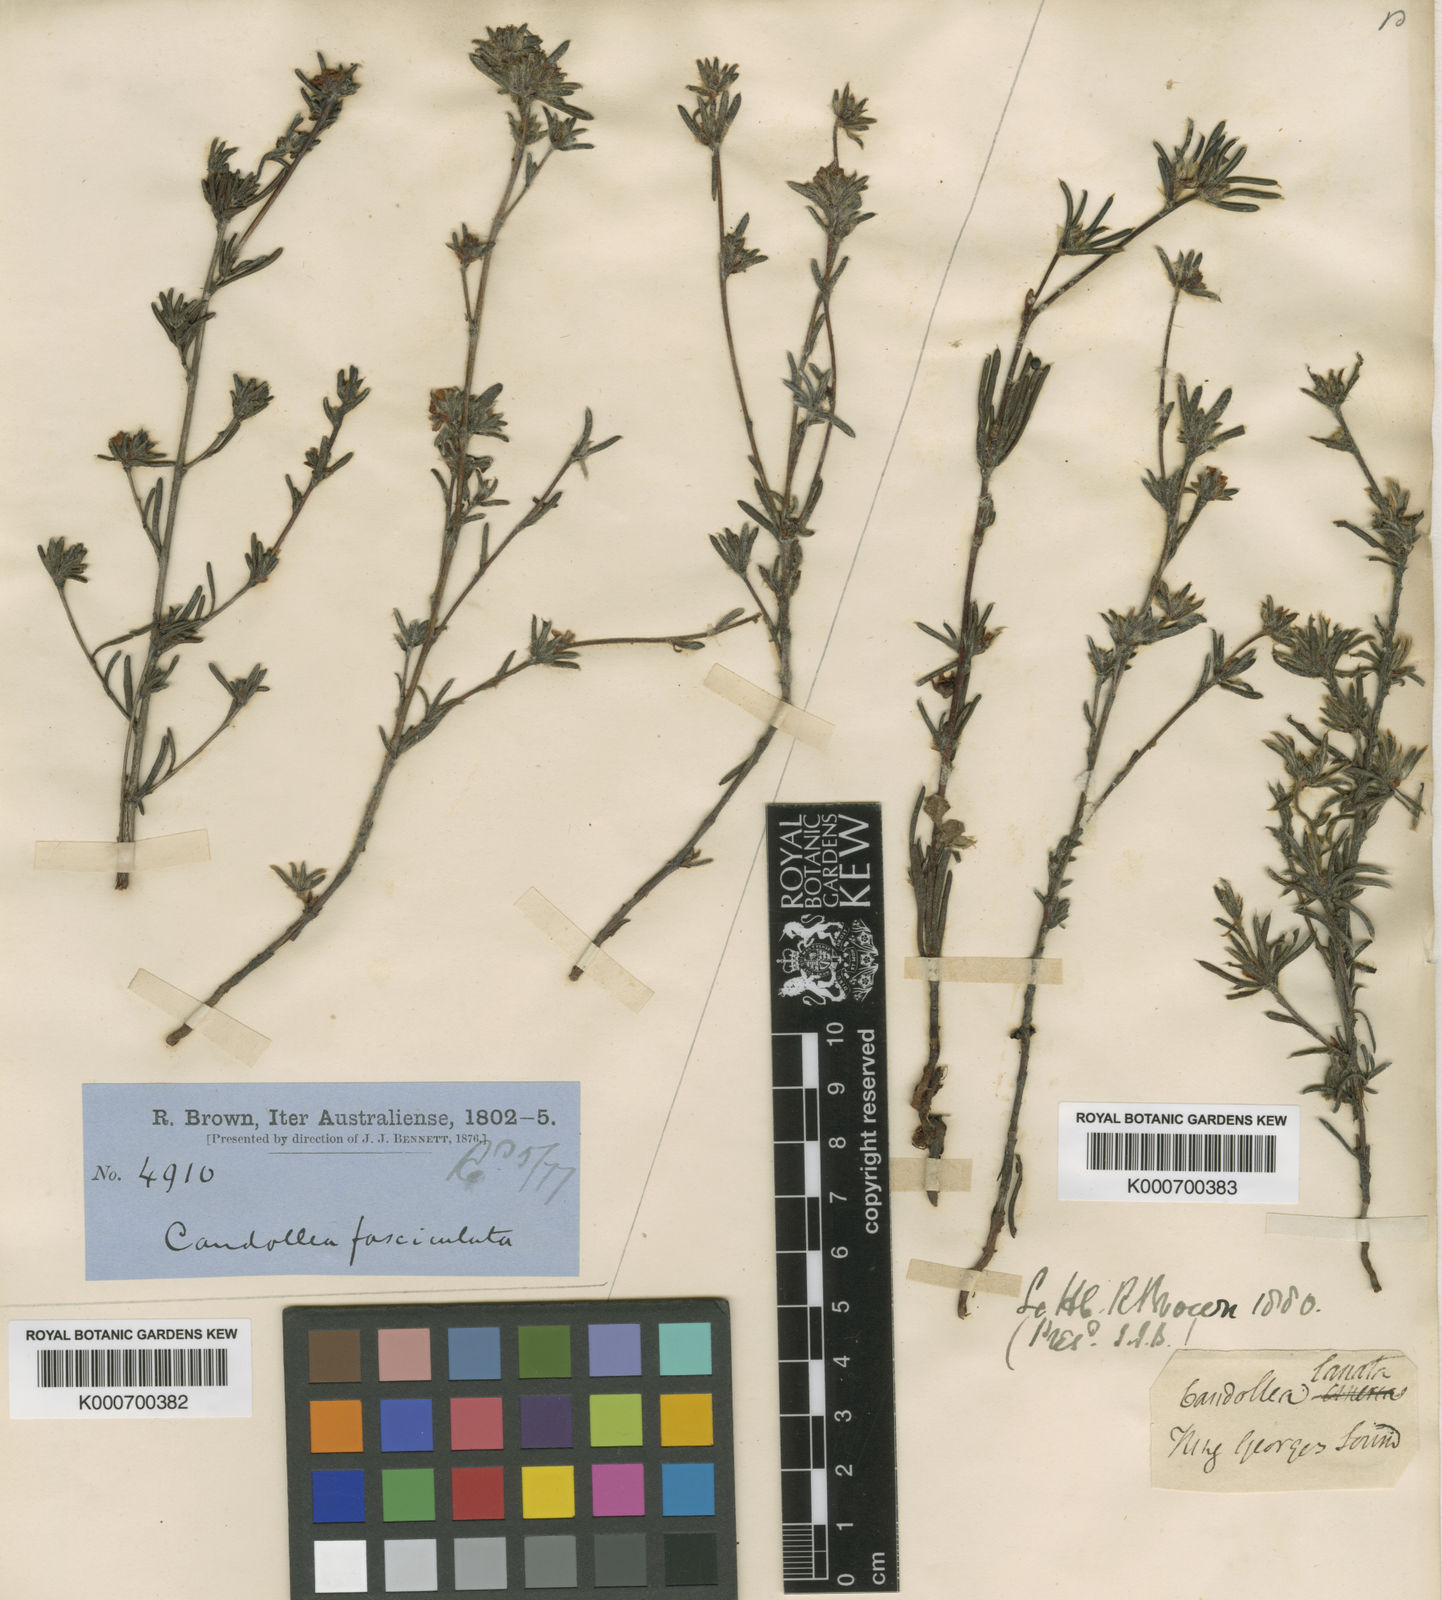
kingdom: Plantae
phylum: Tracheophyta
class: Magnoliopsida
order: Dilleniales
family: Dilleniaceae
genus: Hibbertia
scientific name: Hibbertia fasciculata
